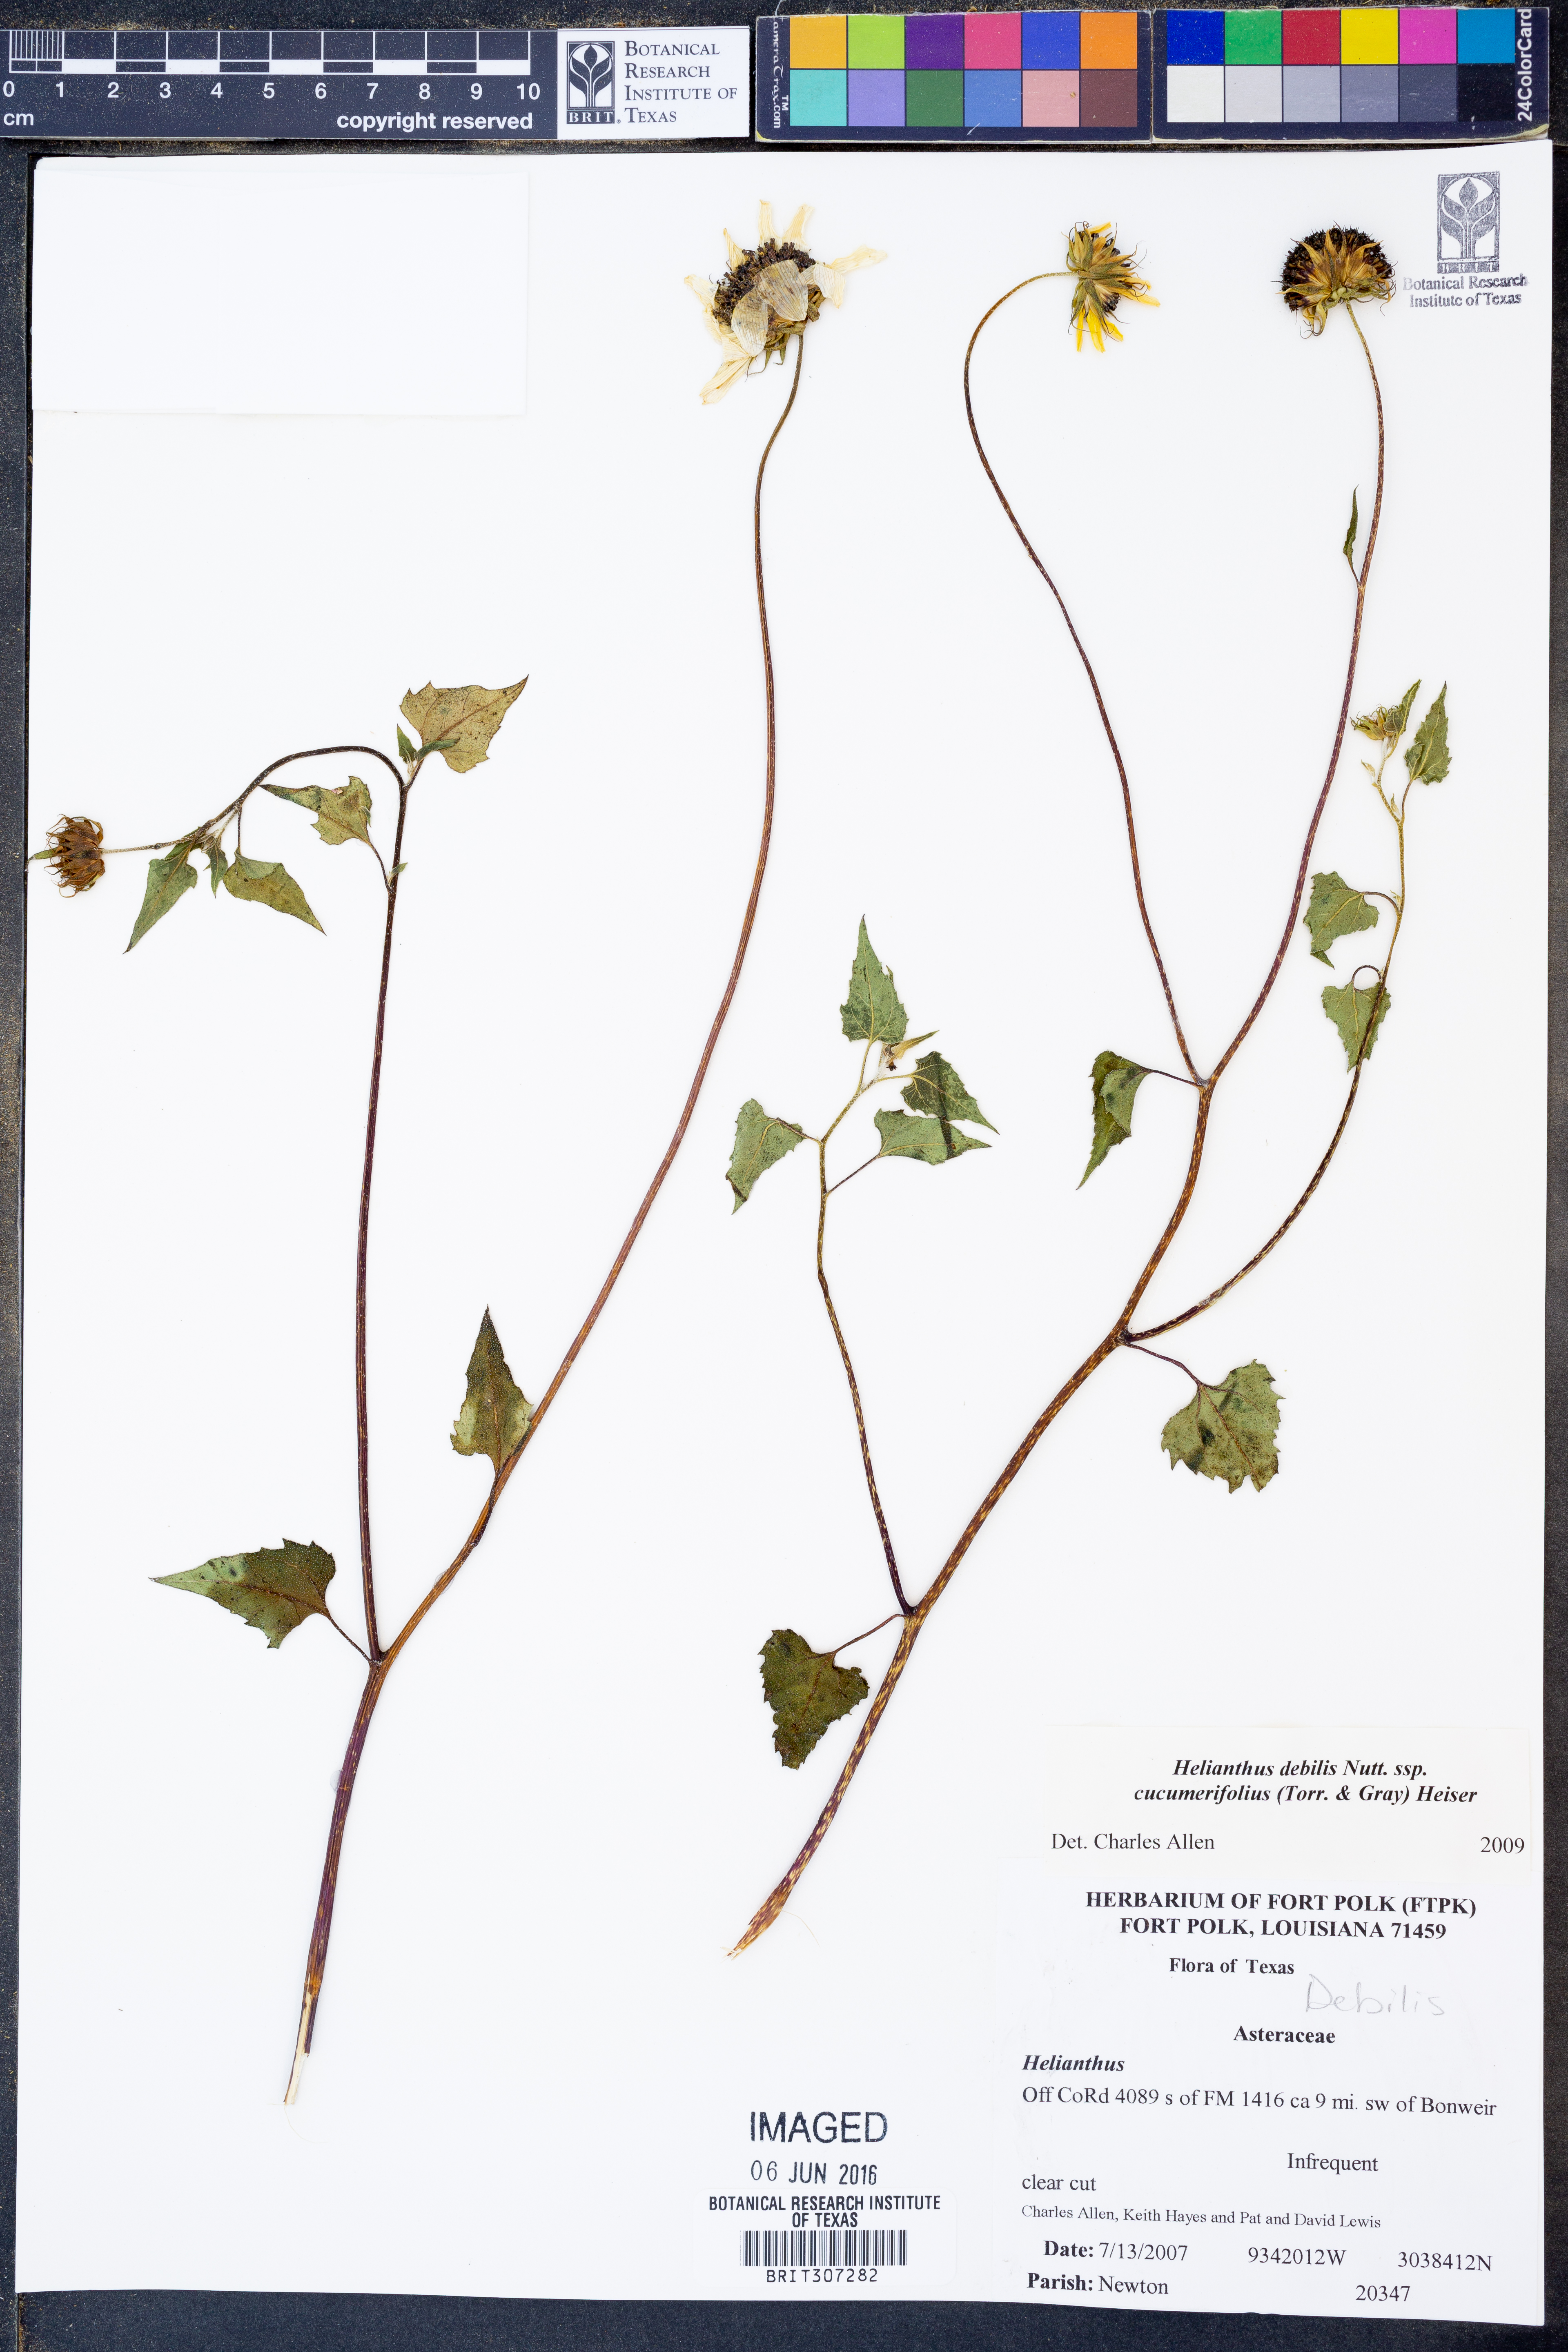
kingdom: Plantae
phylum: Tracheophyta
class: Magnoliopsida
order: Asterales
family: Asteraceae
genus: Helianthus
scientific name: Helianthus debilis
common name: Weak sunflower
